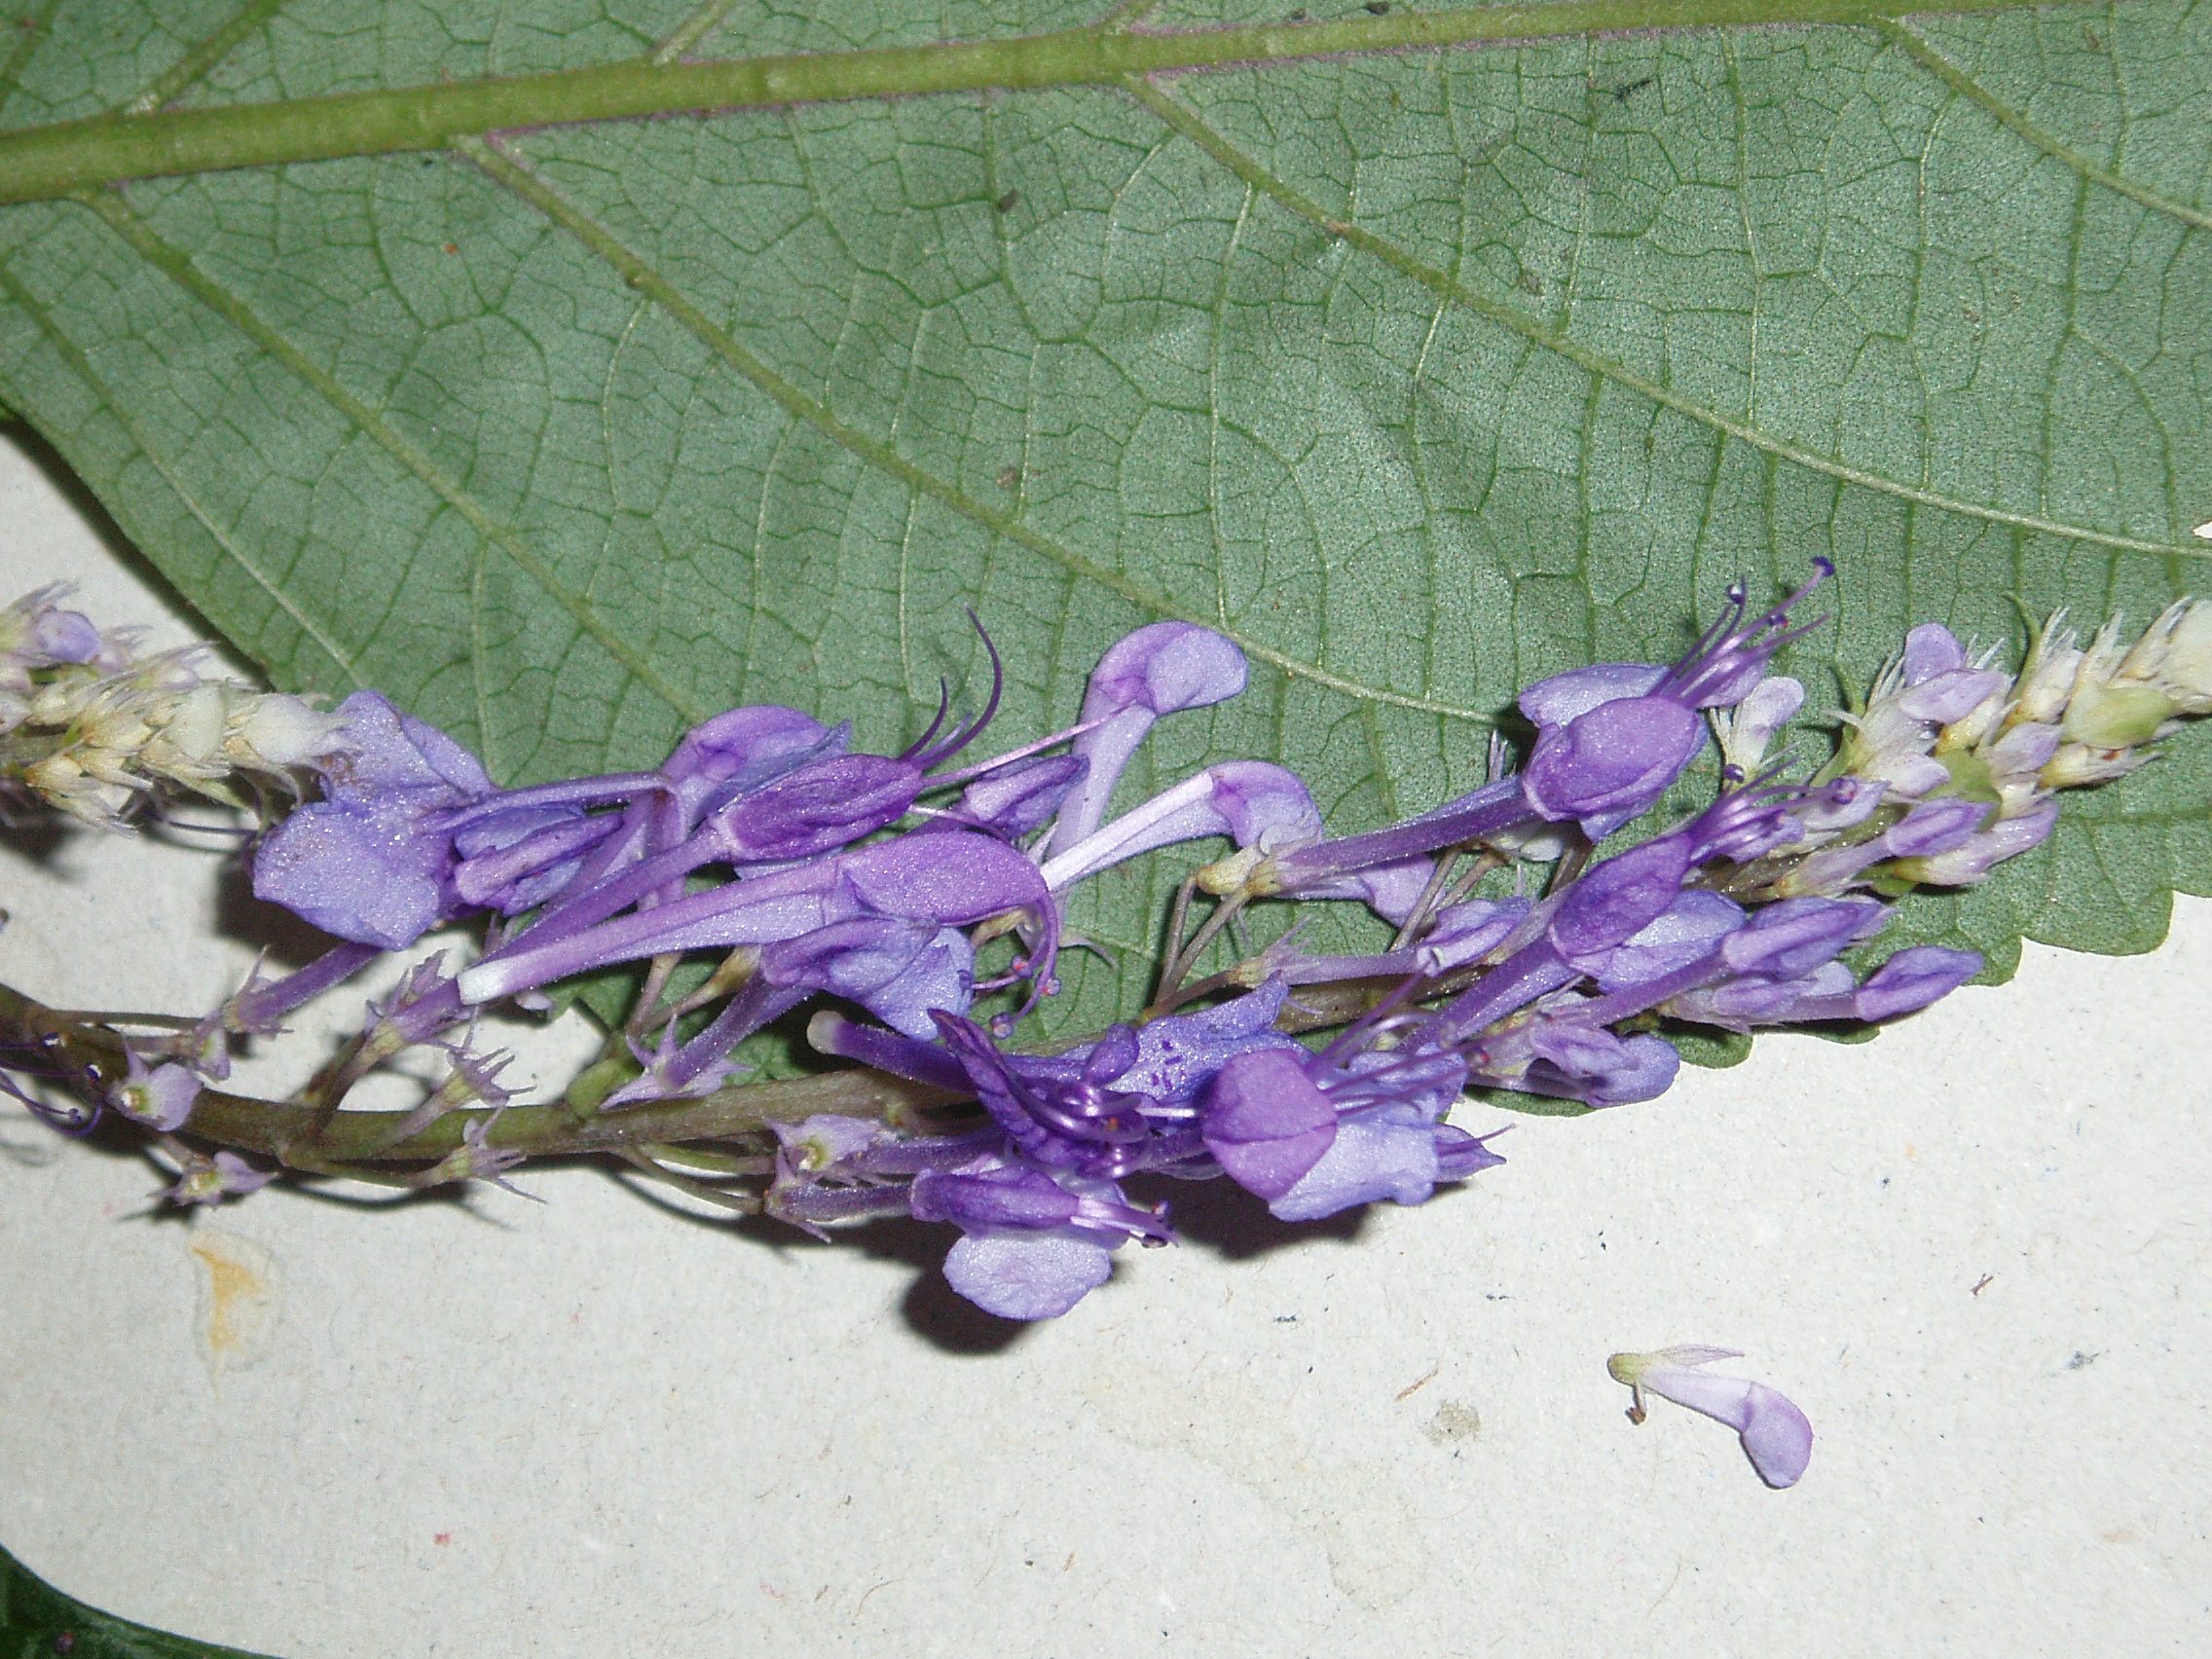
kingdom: Plantae
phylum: Tracheophyta
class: Magnoliopsida
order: Lamiales
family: Lamiaceae
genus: Plectranthus
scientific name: Plectranthus ecklonii
